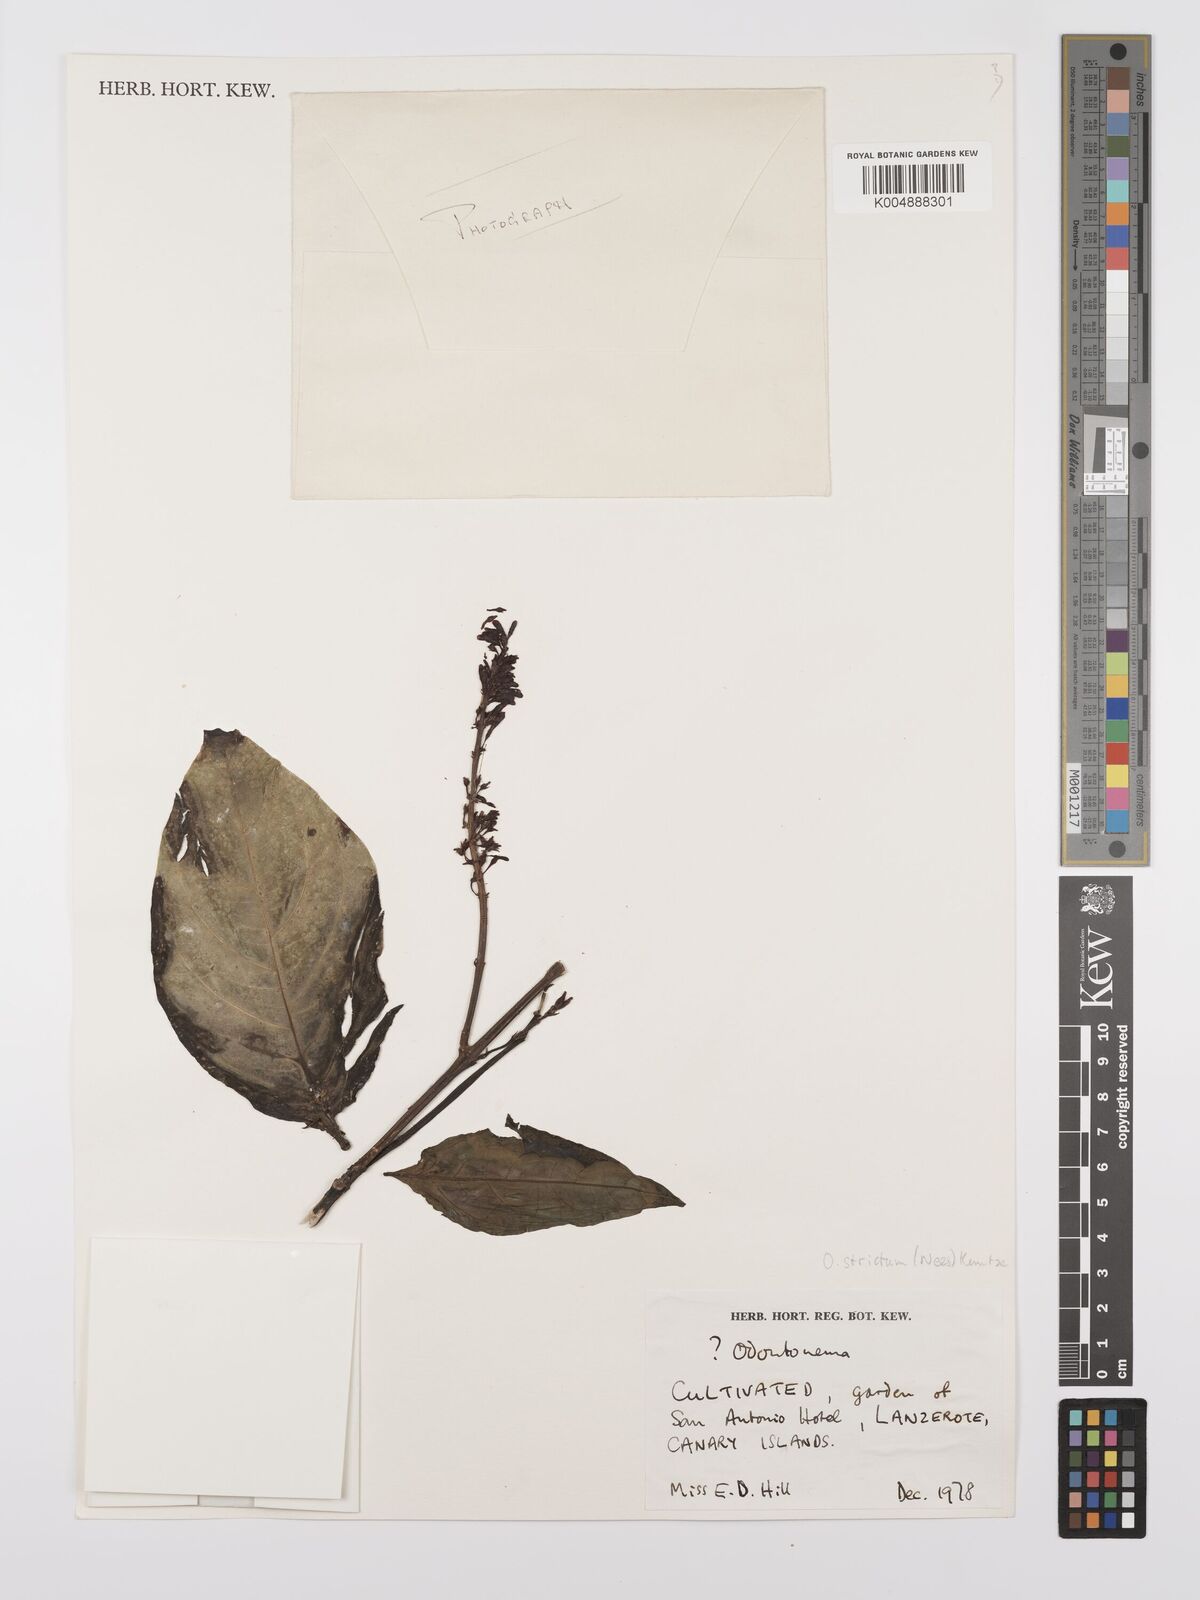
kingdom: Plantae
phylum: Tracheophyta
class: Magnoliopsida
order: Lamiales
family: Acanthaceae
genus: Odontonema
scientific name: Odontonema cuspidatum
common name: Mottled toothedthread
